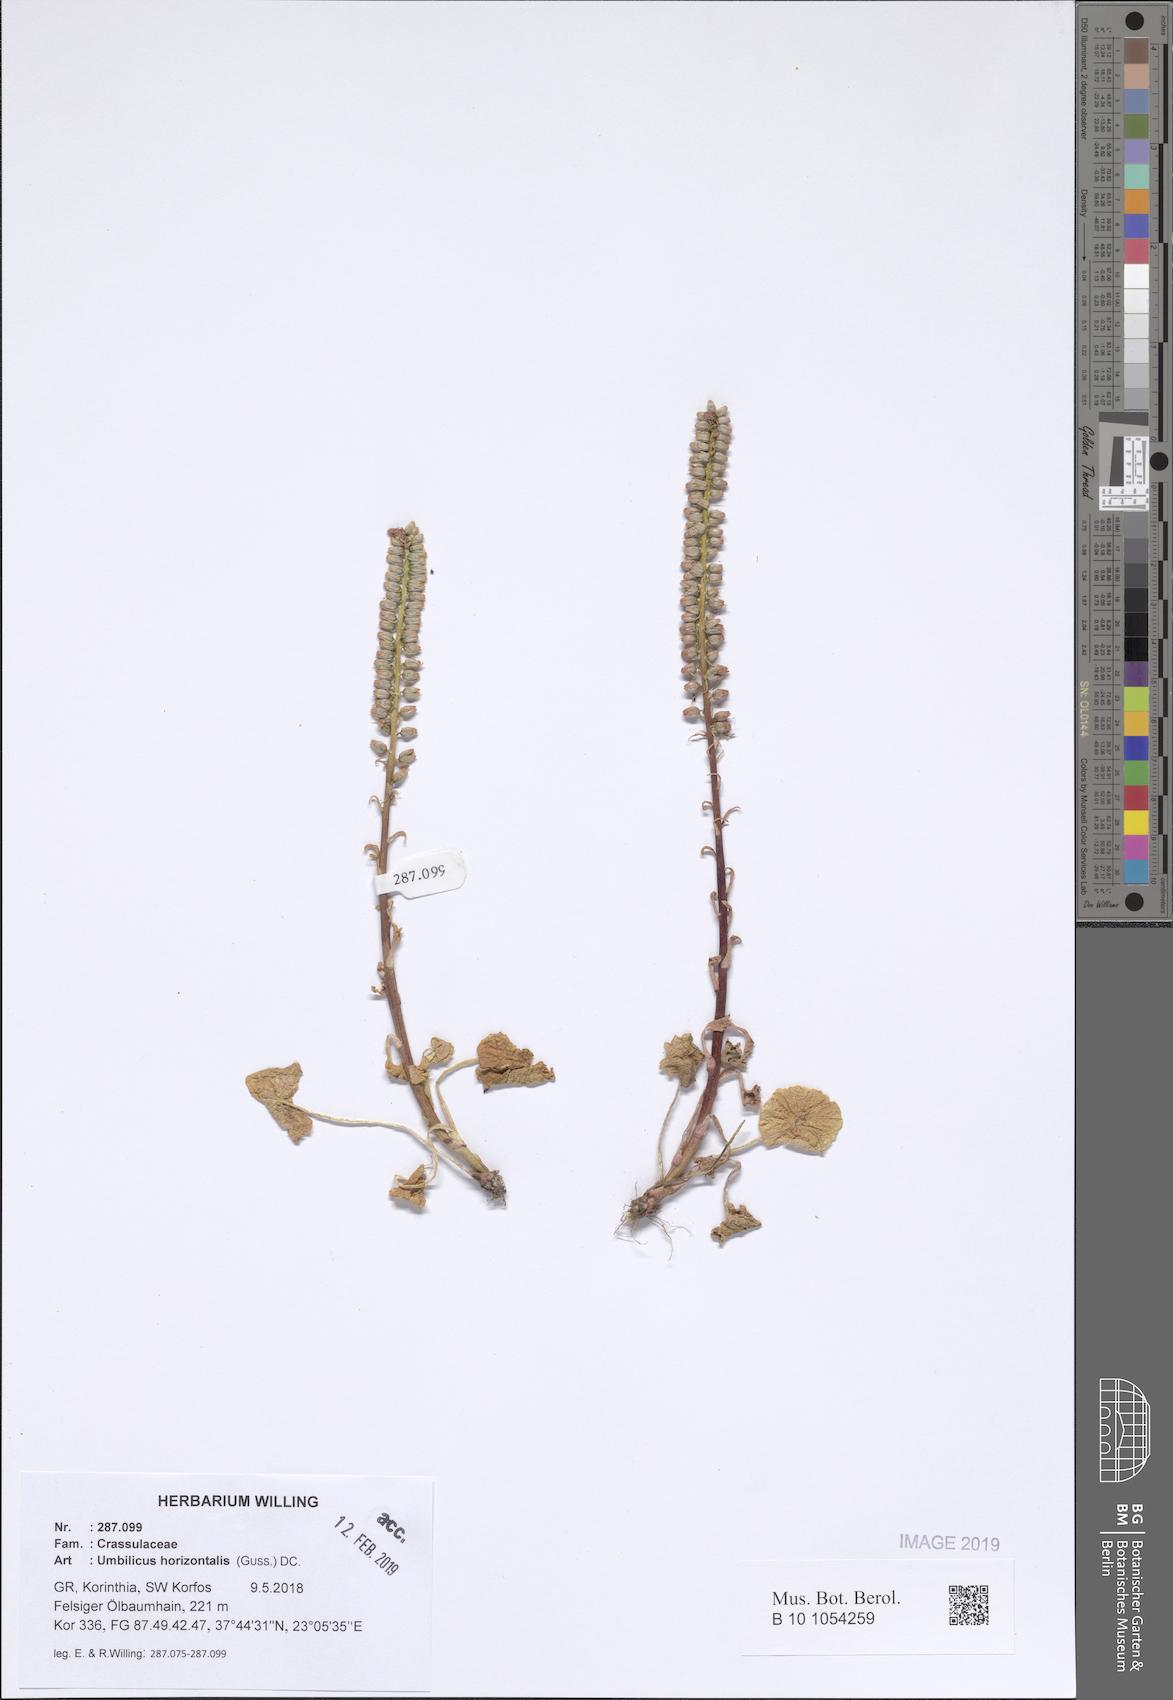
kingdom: Plantae
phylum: Tracheophyta
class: Magnoliopsida
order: Saxifragales
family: Crassulaceae
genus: Umbilicus
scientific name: Umbilicus horizontalis
